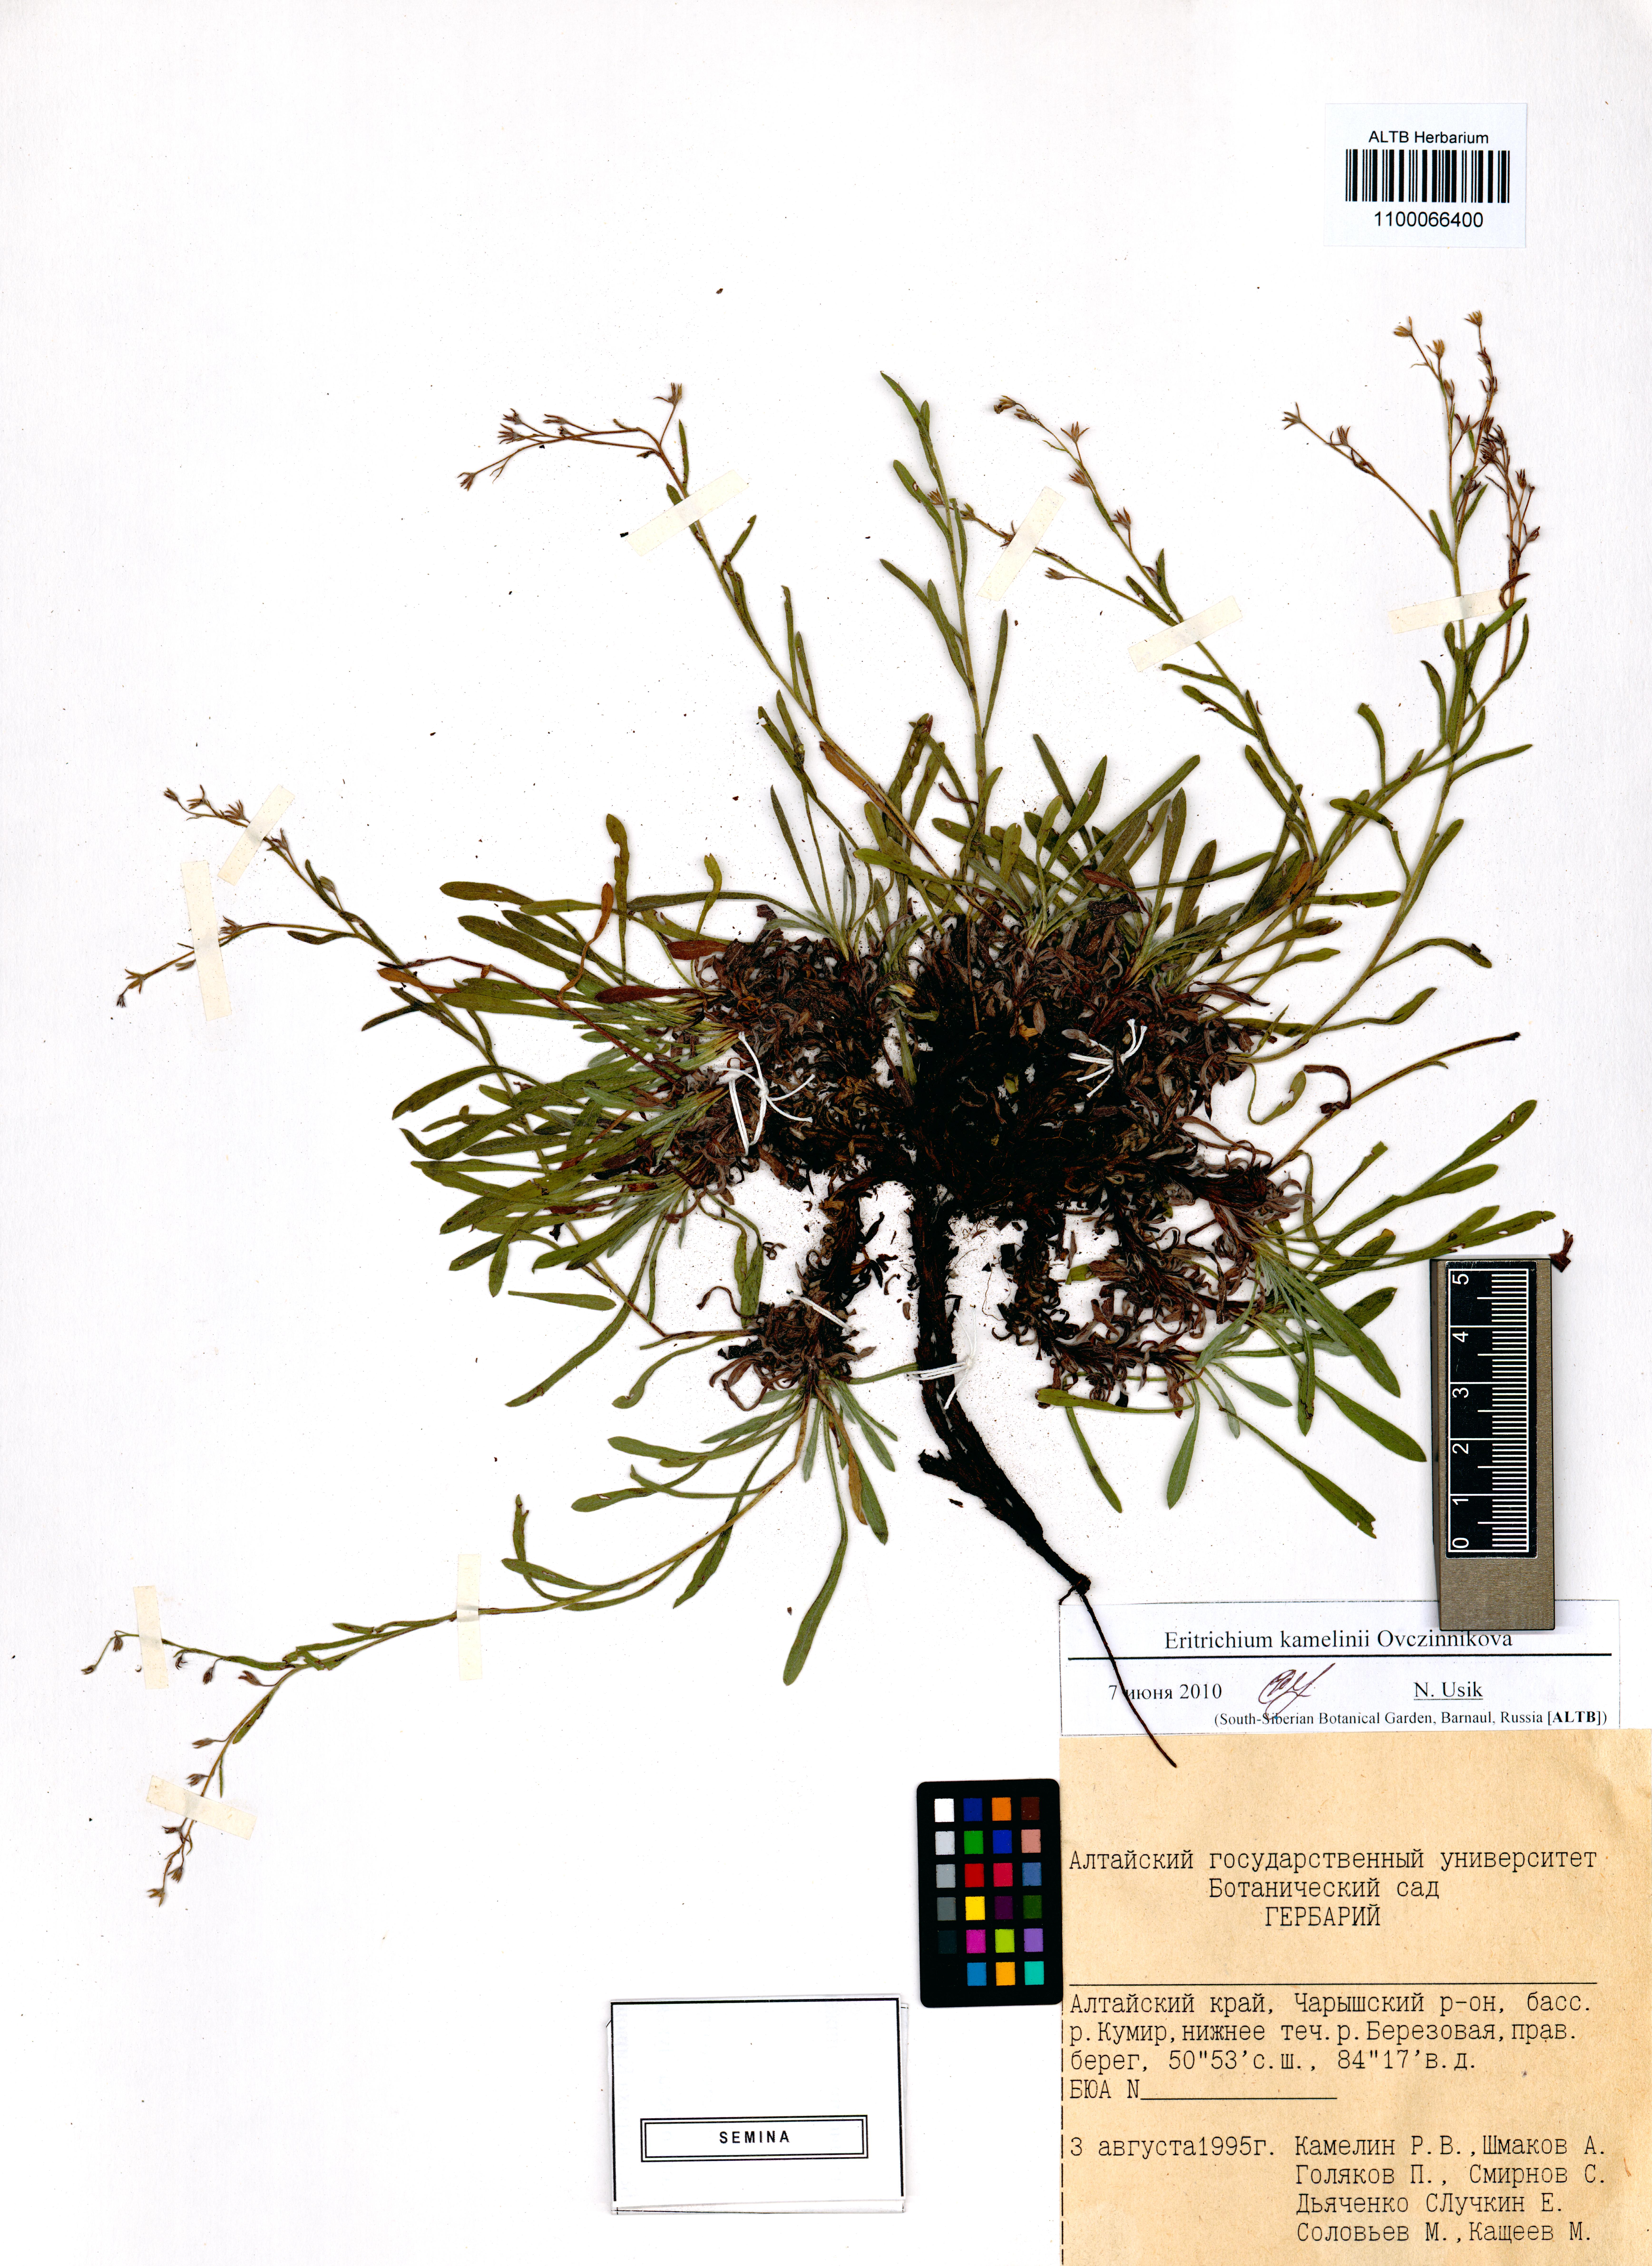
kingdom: Plantae
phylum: Tracheophyta
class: Magnoliopsida
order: Boraginales
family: Boraginaceae
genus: Eritrichium
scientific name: Eritrichium kamelinii
